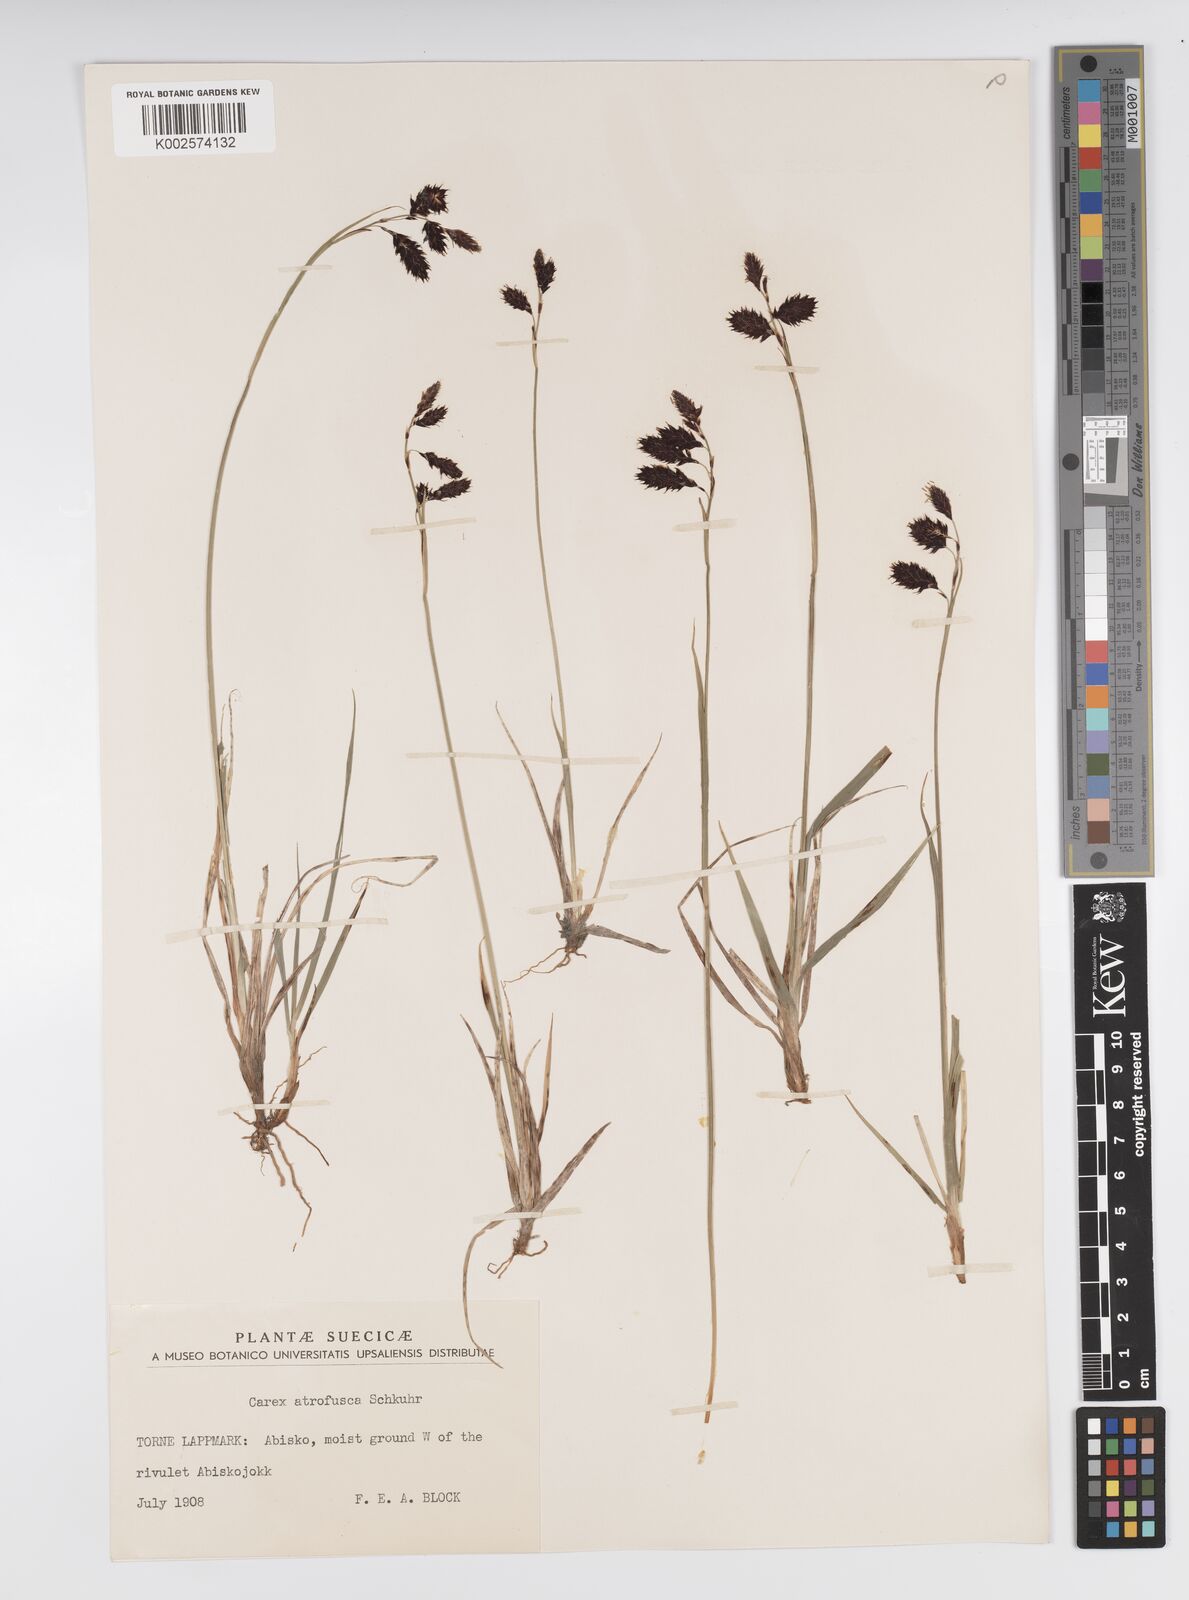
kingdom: Plantae
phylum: Tracheophyta
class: Liliopsida
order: Poales
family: Cyperaceae
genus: Carex
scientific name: Carex atrofusca
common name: Scorched alpine-sedge
